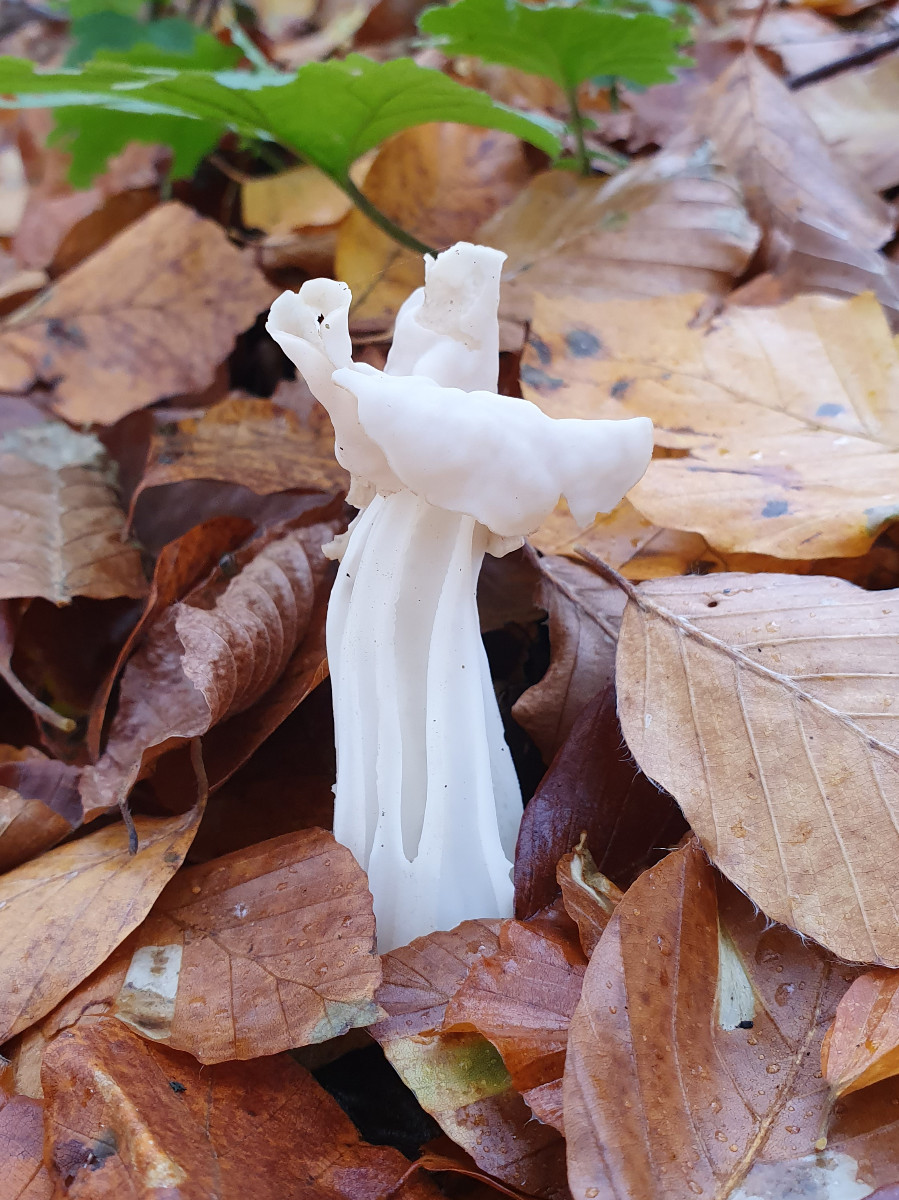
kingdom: Fungi
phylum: Ascomycota
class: Pezizomycetes
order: Pezizales
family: Helvellaceae
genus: Helvella
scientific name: Helvella crispa
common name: kruset foldhat
